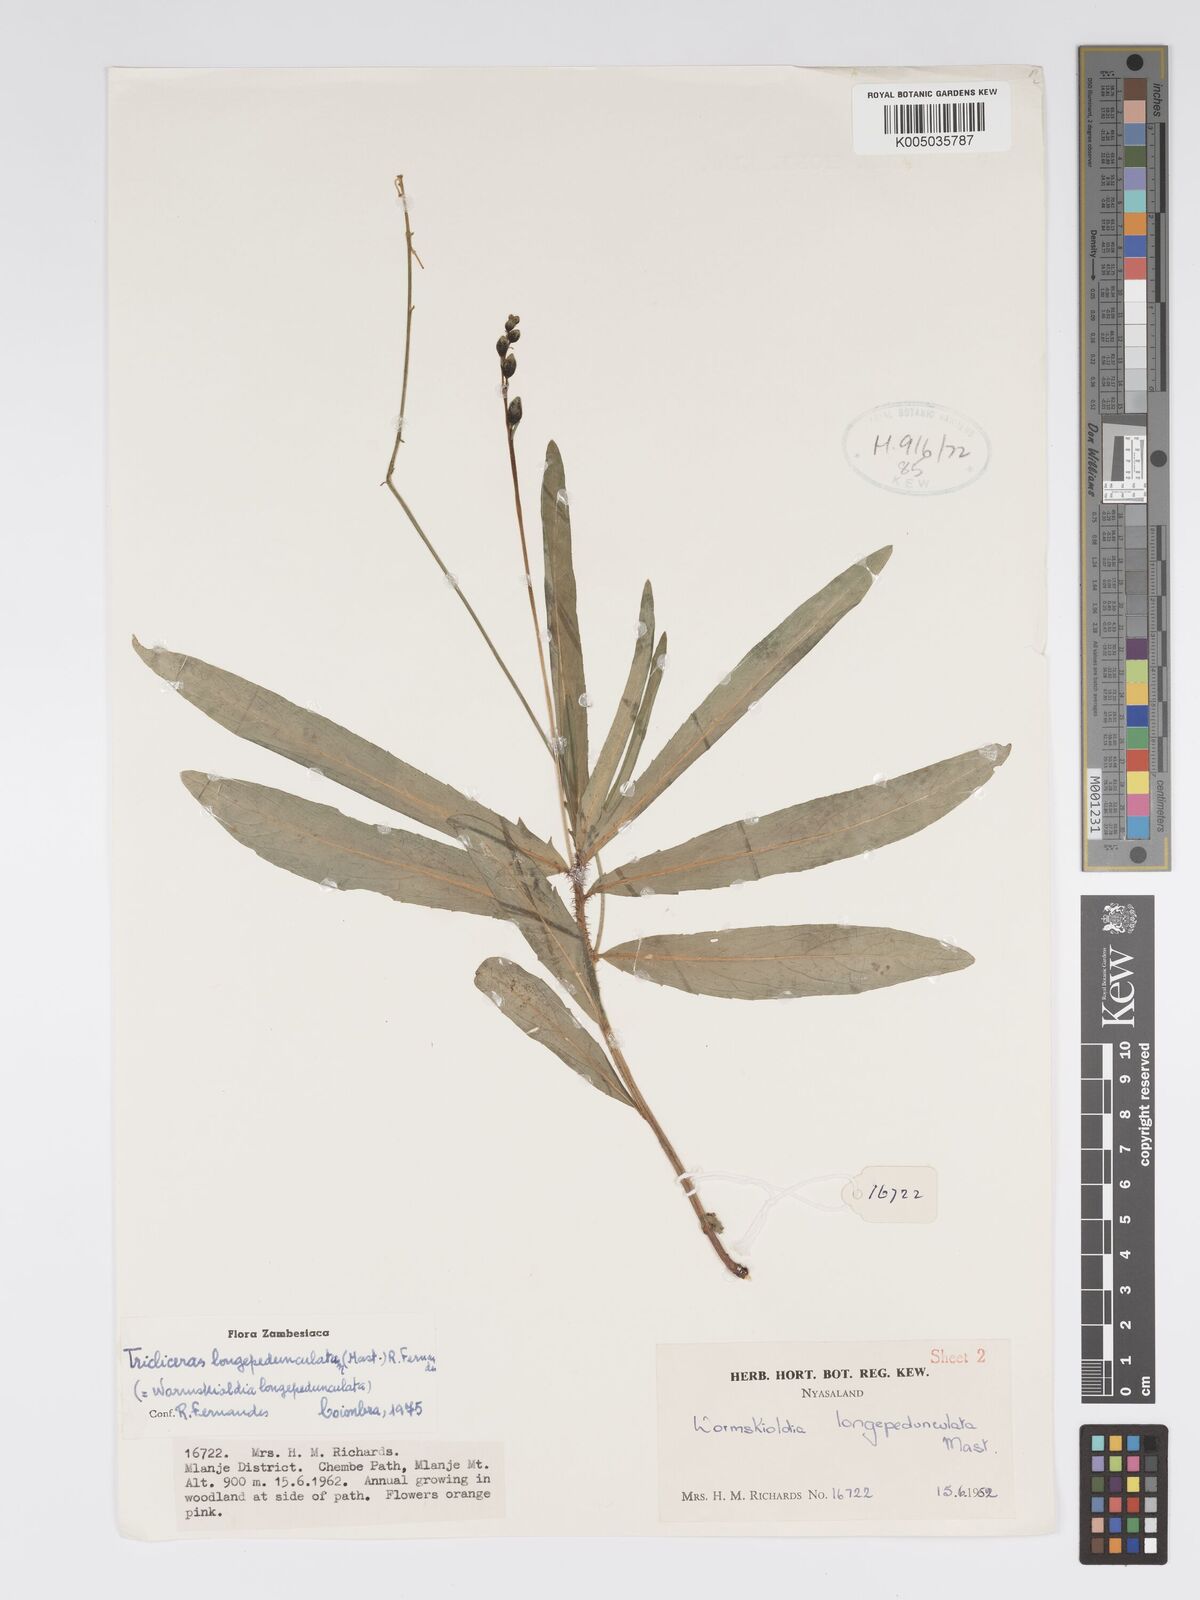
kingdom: Plantae
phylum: Tracheophyta
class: Magnoliopsida
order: Malpighiales
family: Turneraceae
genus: Tricliceras
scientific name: Tricliceras longepedunculatum
